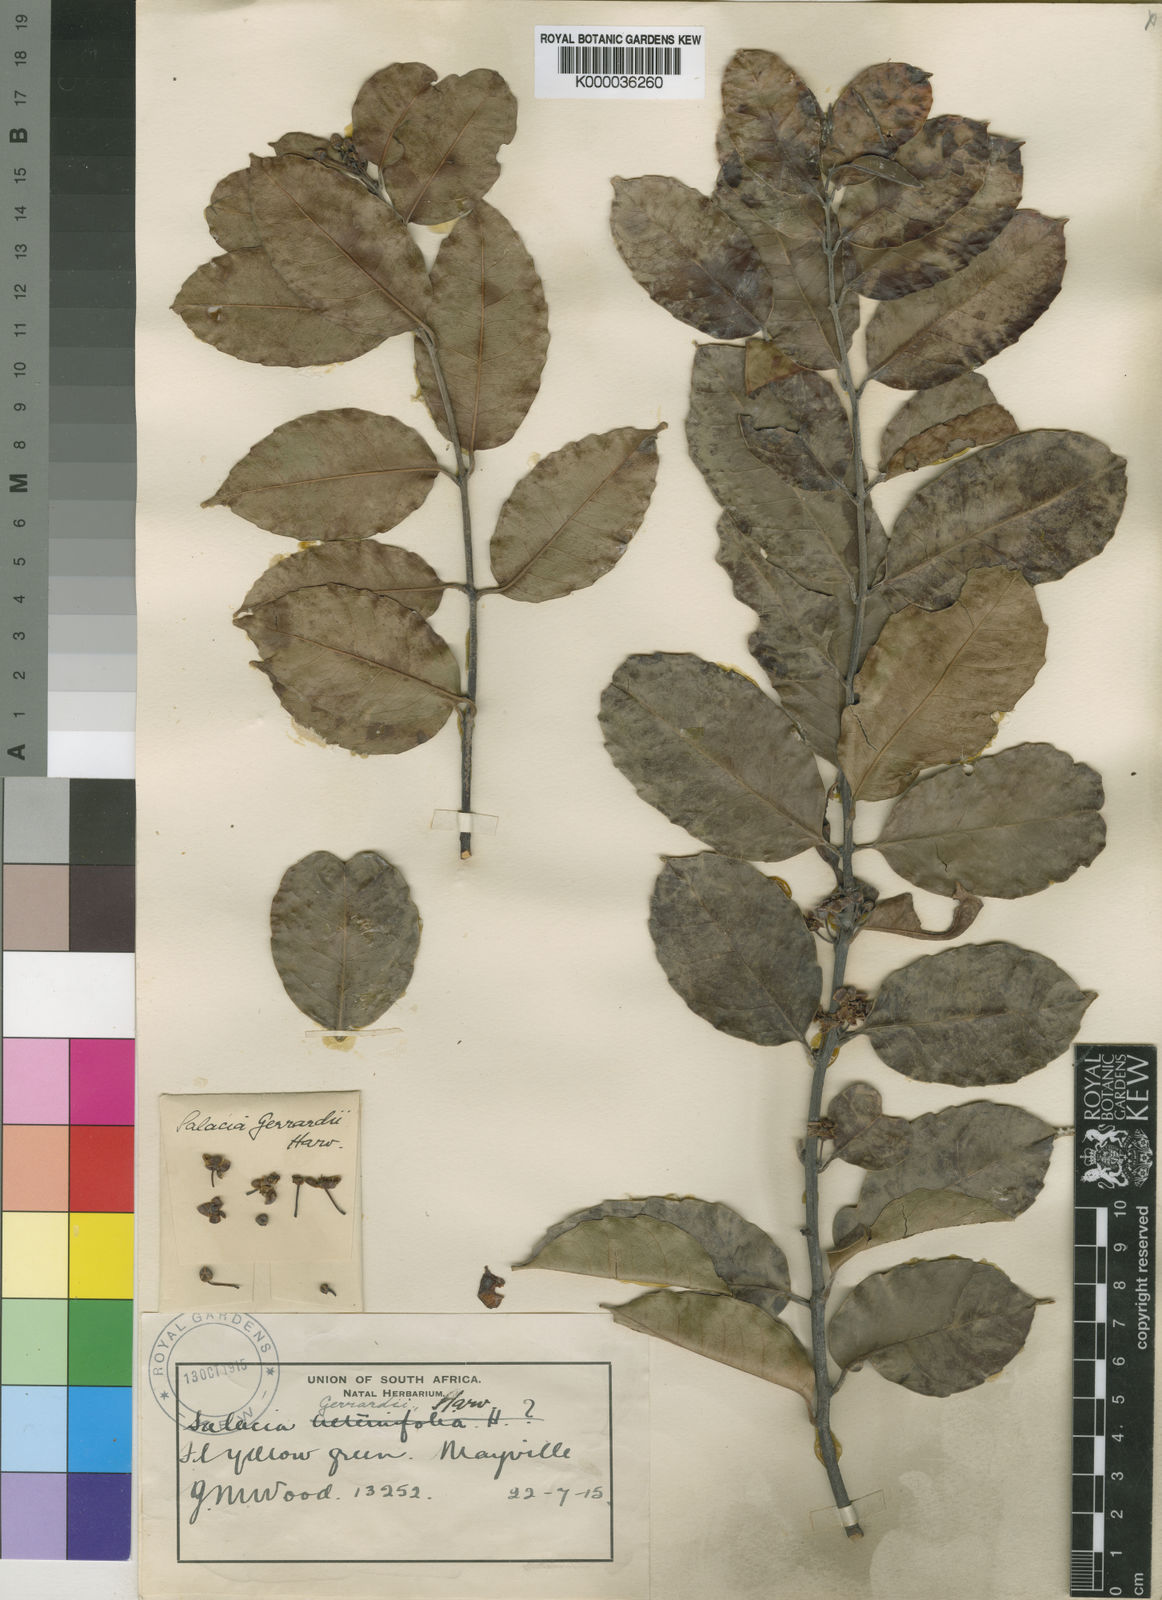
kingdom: Plantae
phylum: Tracheophyta
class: Magnoliopsida
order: Celastrales
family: Celastraceae
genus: Salacia
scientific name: Salacia gerrardii
